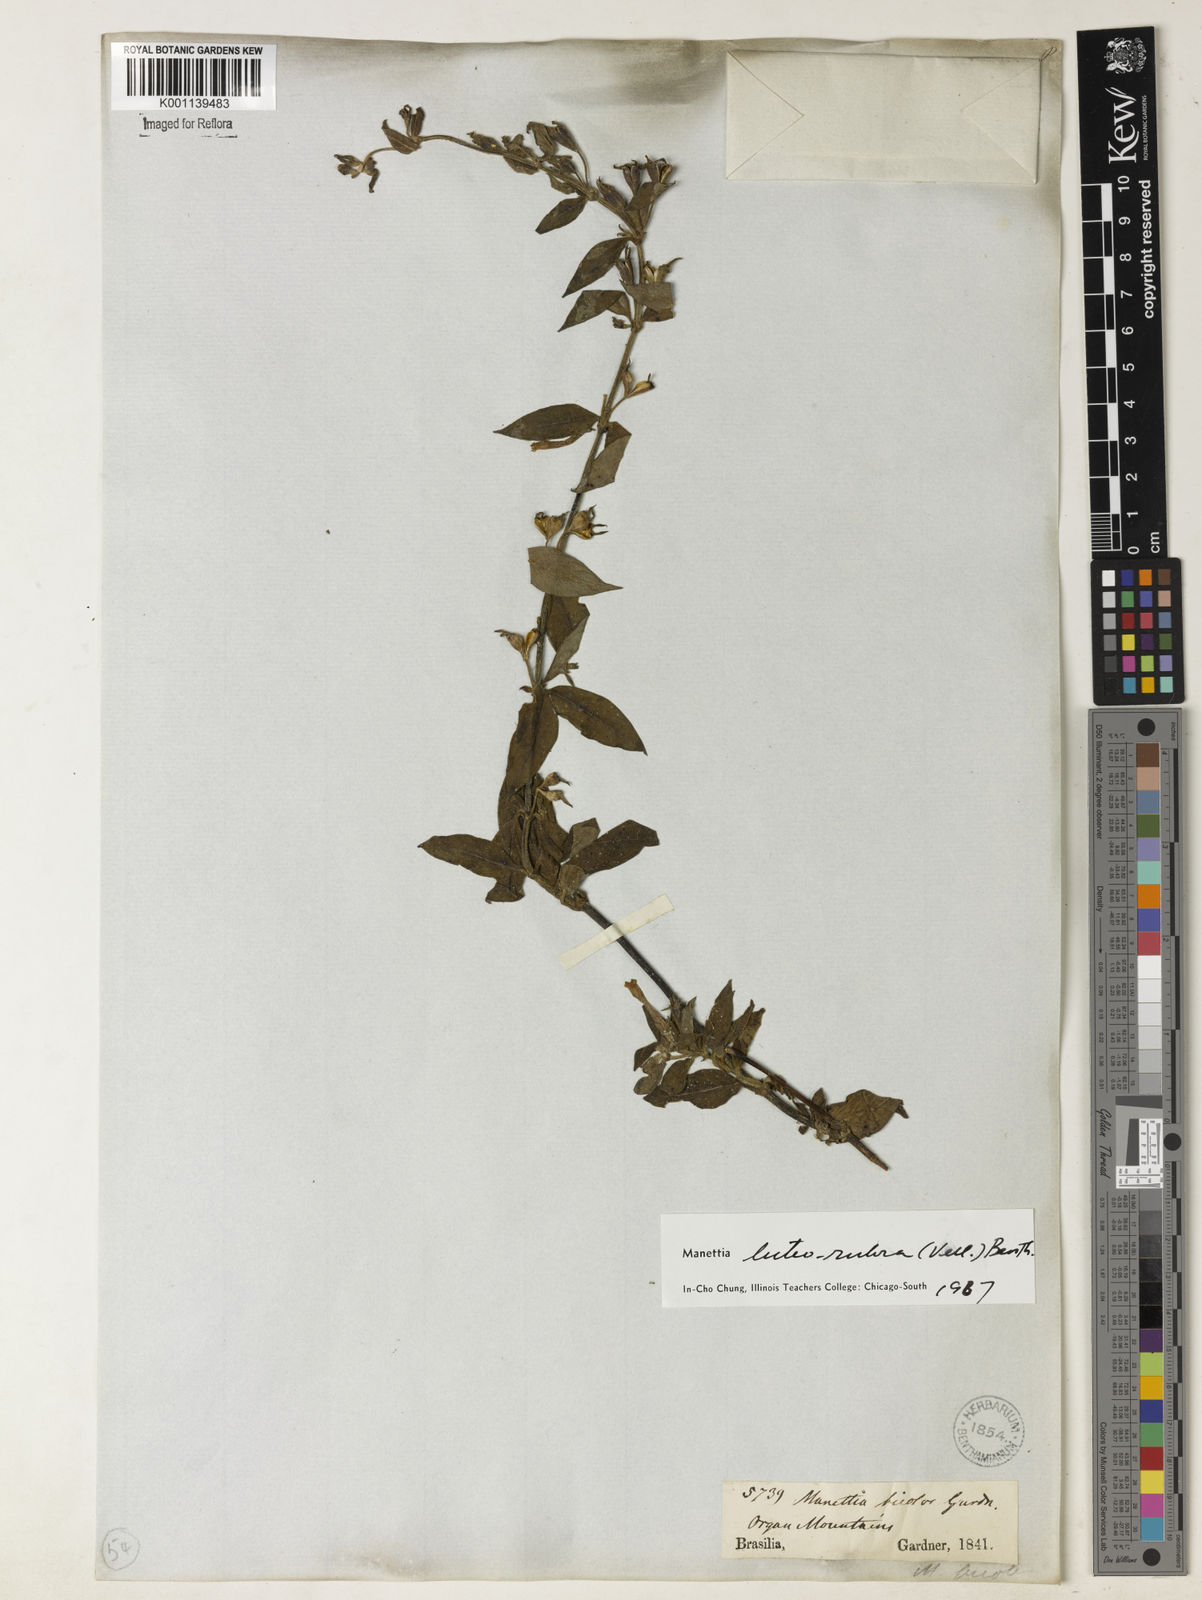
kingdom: Plantae
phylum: Tracheophyta
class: Magnoliopsida
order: Gentianales
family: Rubiaceae
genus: Manettia
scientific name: Manettia luteorubra
